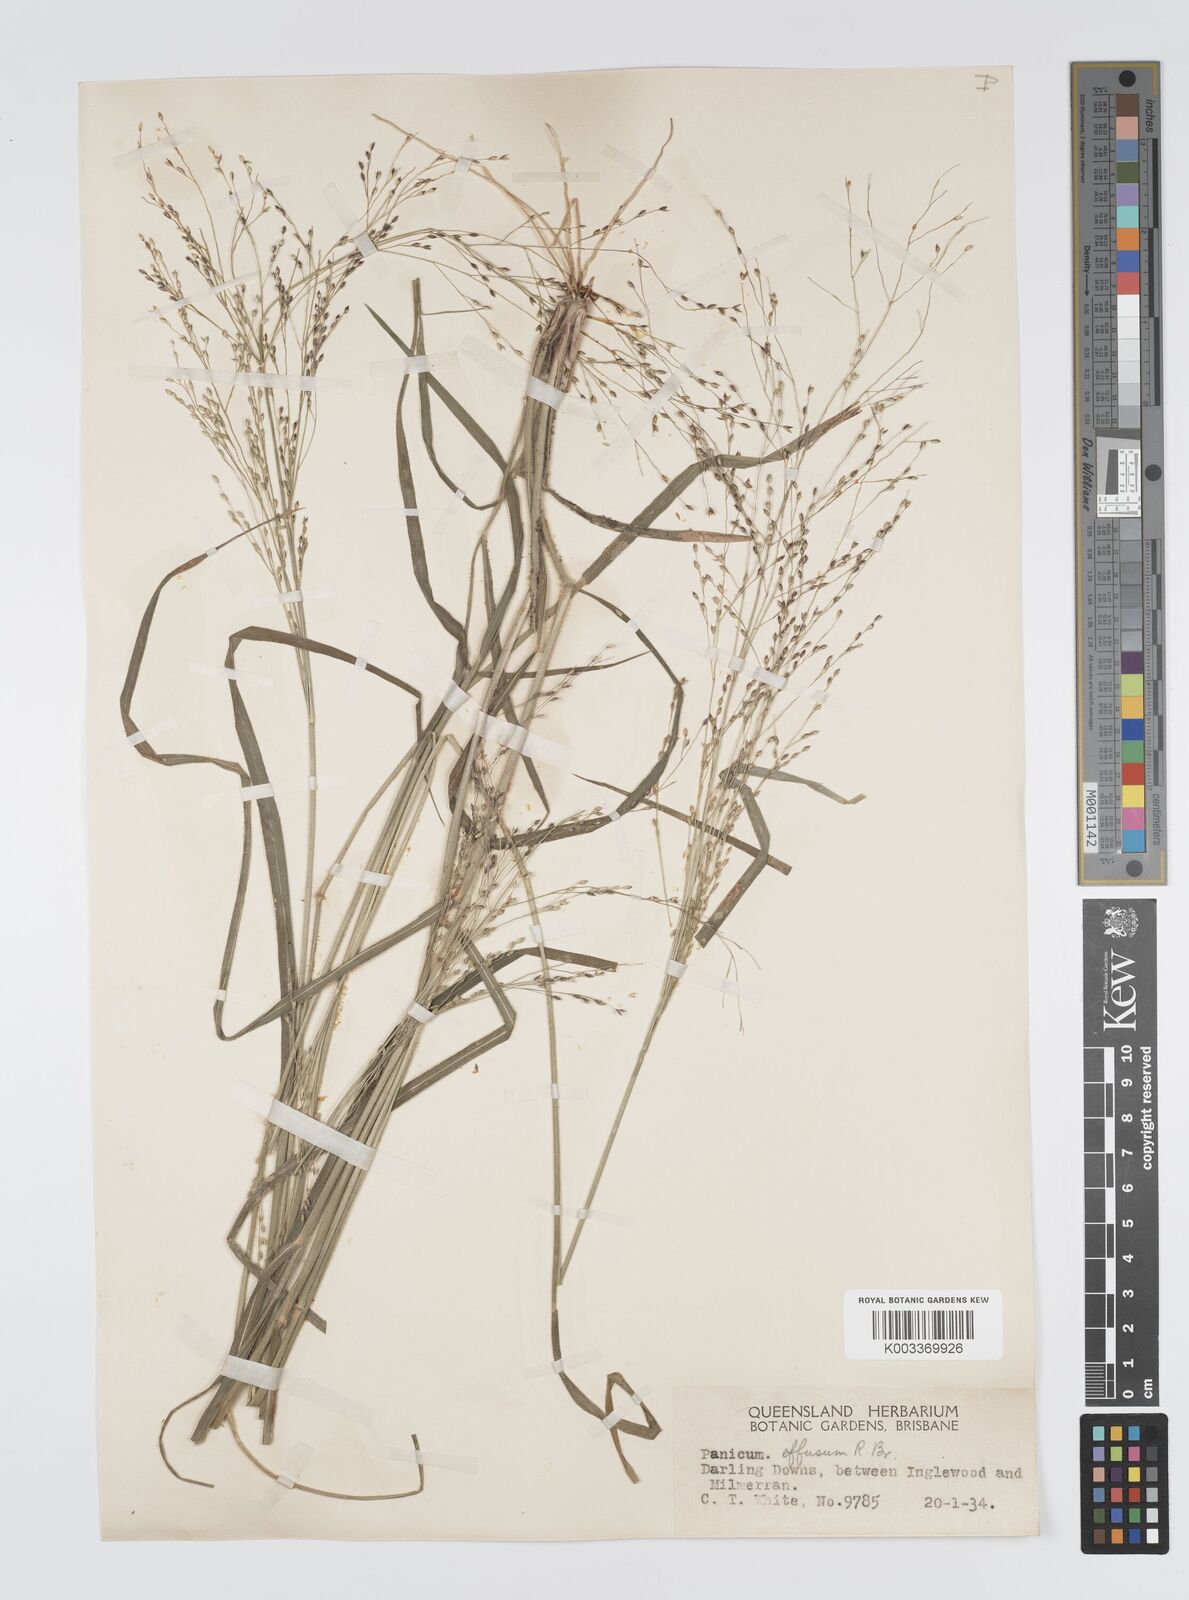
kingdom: Plantae
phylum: Tracheophyta
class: Liliopsida
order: Poales
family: Poaceae
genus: Panicum
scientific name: Panicum effusum
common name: Hairy panic grass
